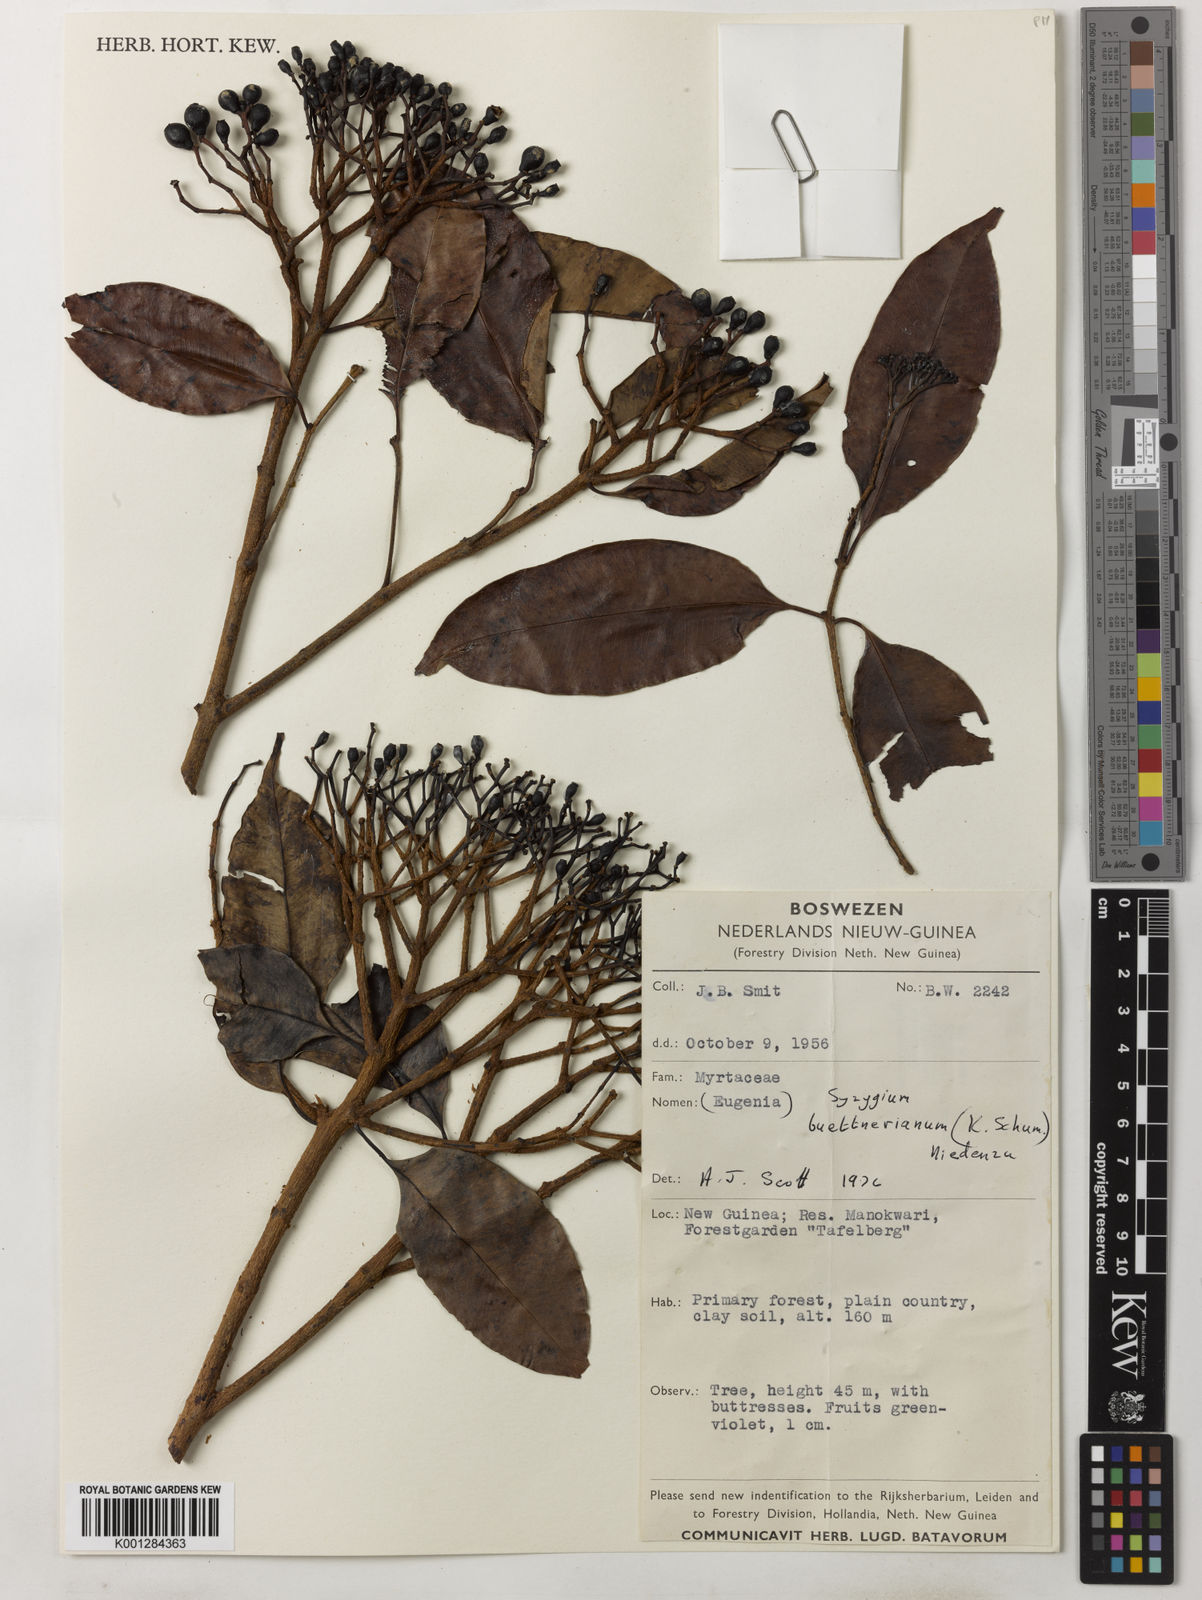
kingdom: Plantae
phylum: Tracheophyta
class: Magnoliopsida
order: Myrtales
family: Myrtaceae
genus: Syzygium
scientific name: Syzygium buettnerianum
